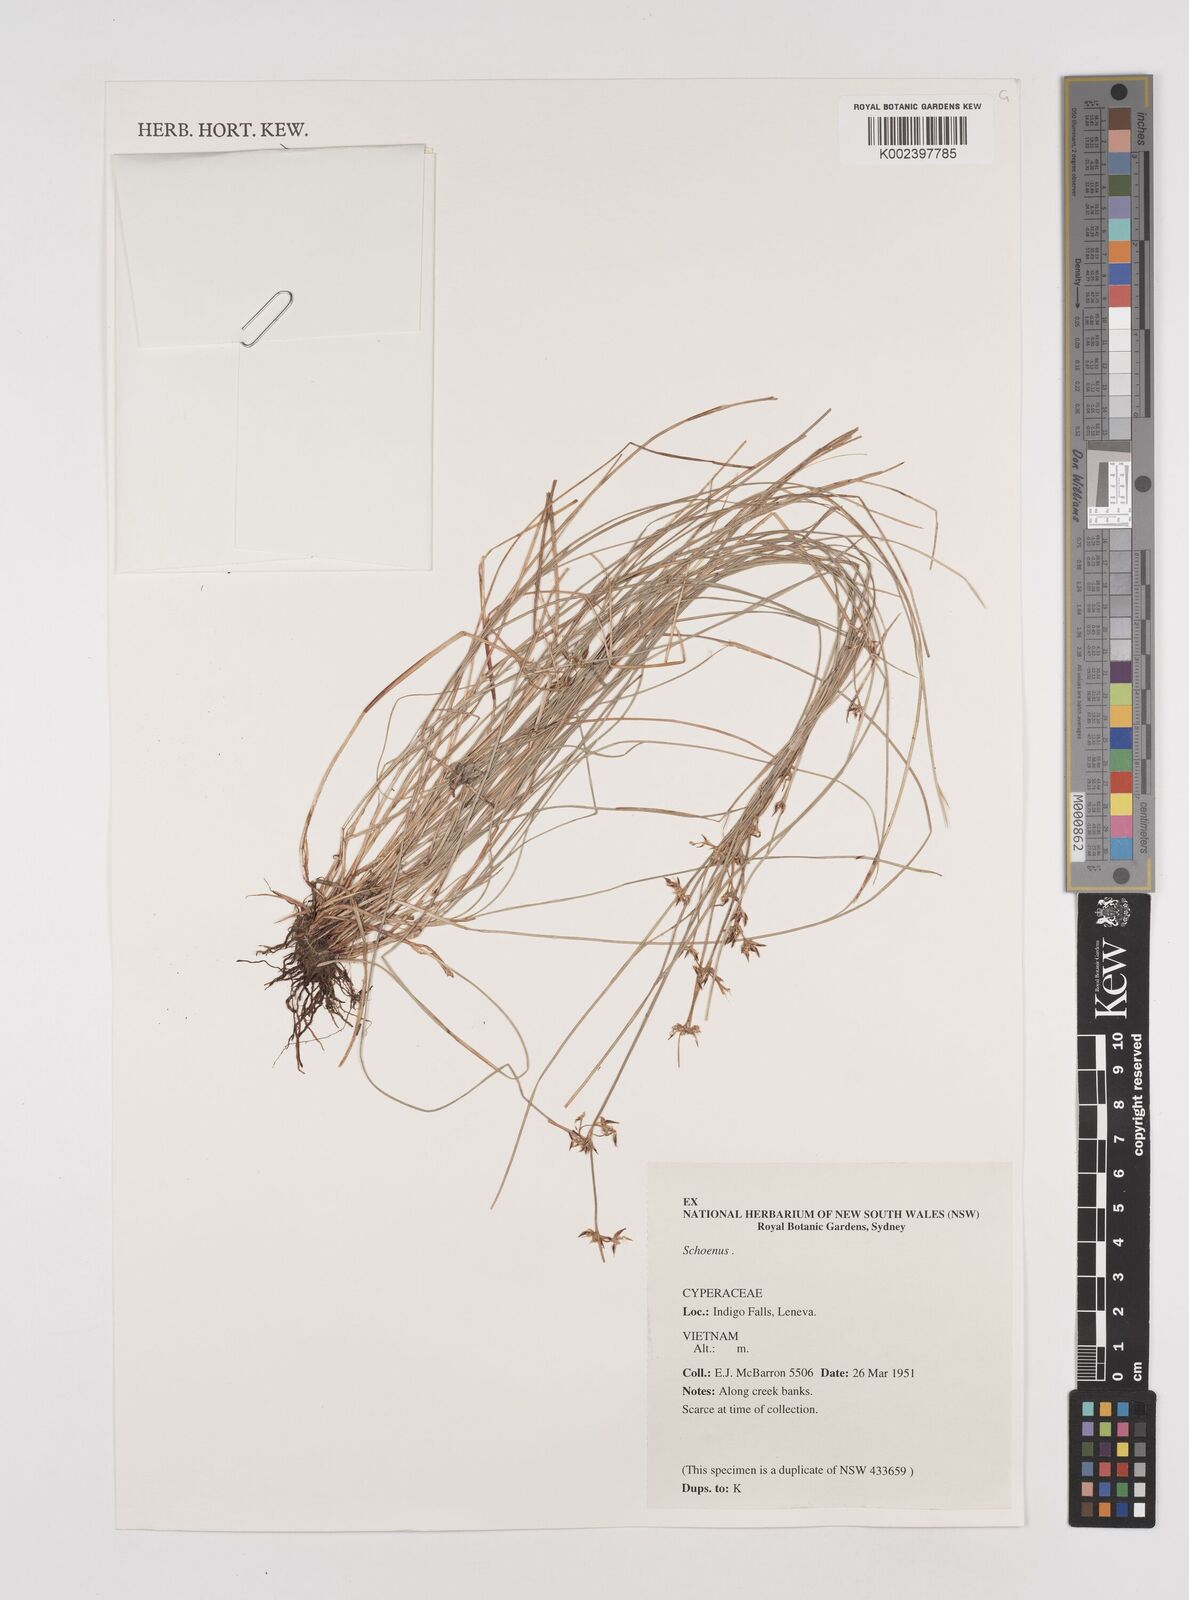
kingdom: Plantae
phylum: Tracheophyta
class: Liliopsida
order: Poales
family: Cyperaceae
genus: Schoenus
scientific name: Schoenus
